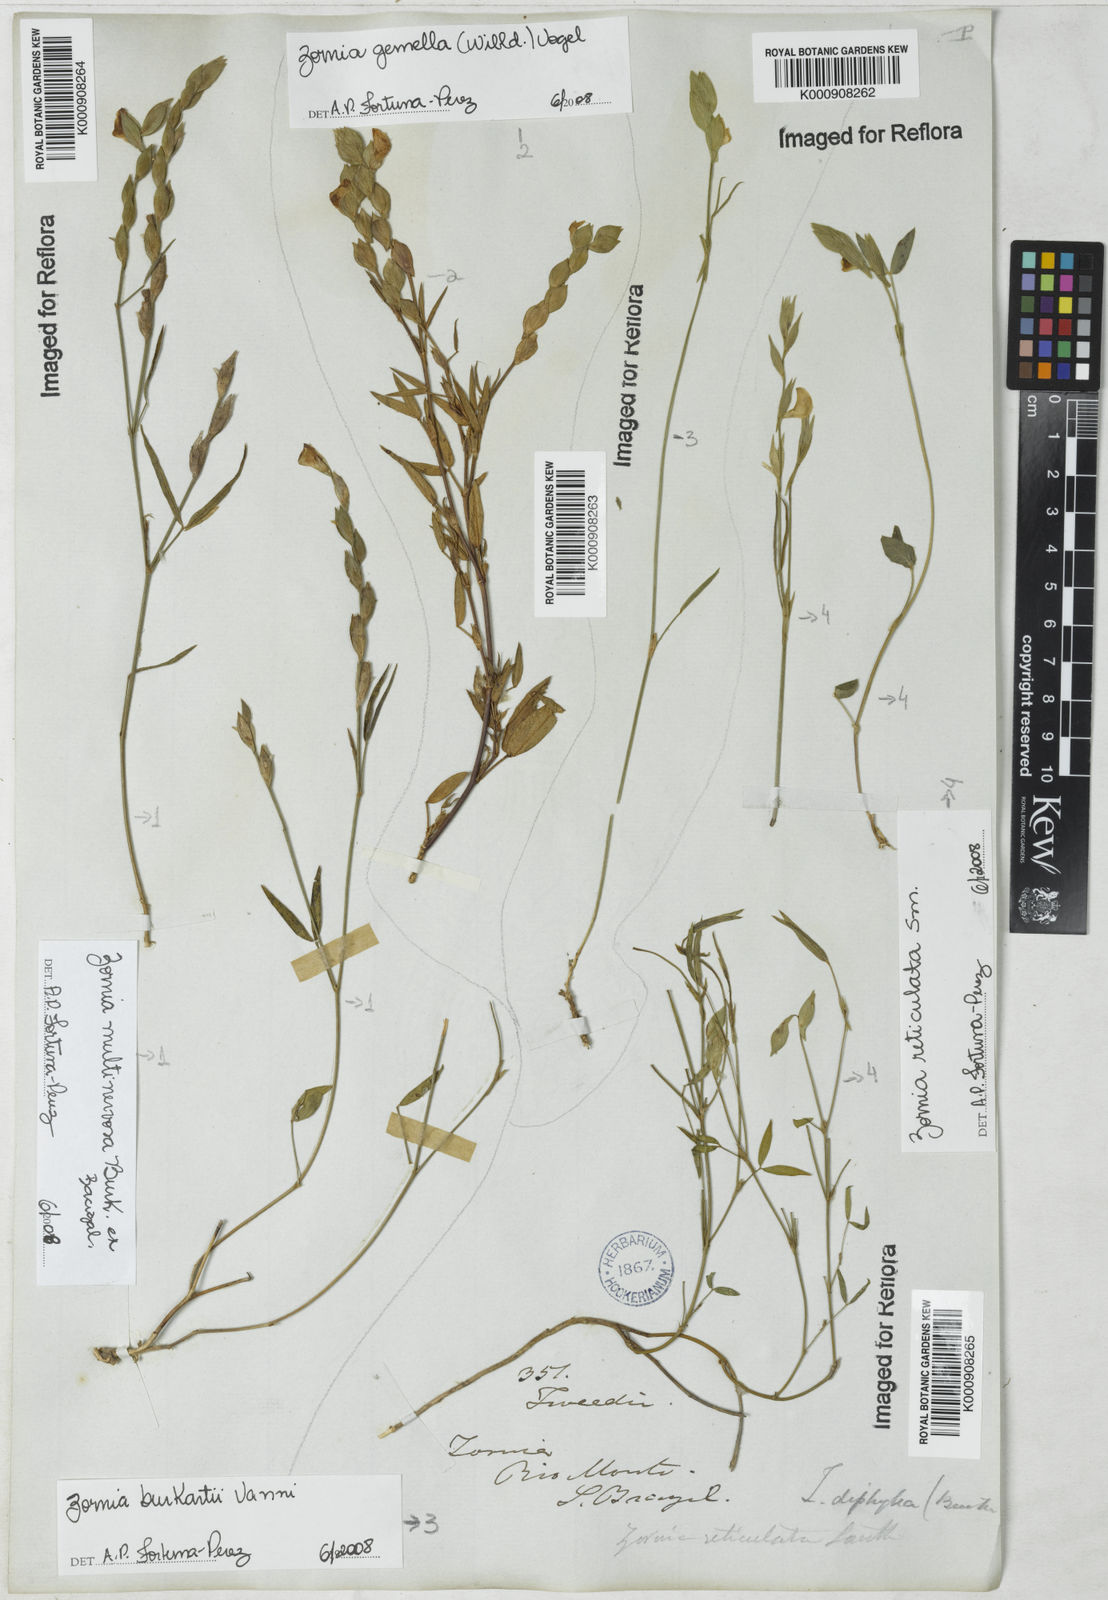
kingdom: Plantae
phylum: Tracheophyta
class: Magnoliopsida
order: Fabales
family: Fabaceae
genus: Zornia
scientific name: Zornia
